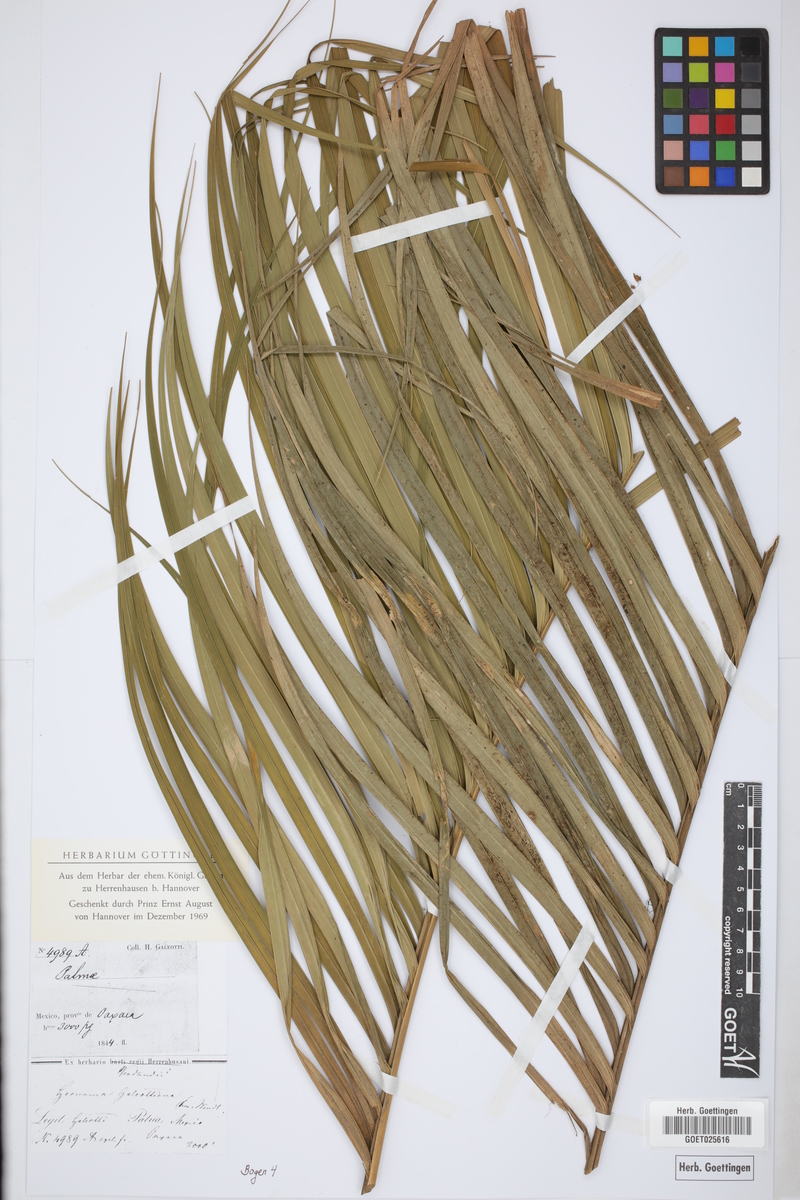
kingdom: Plantae
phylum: Tracheophyta
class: Liliopsida
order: Arecales
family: Arecaceae
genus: Geonoma
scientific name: Geonoma
